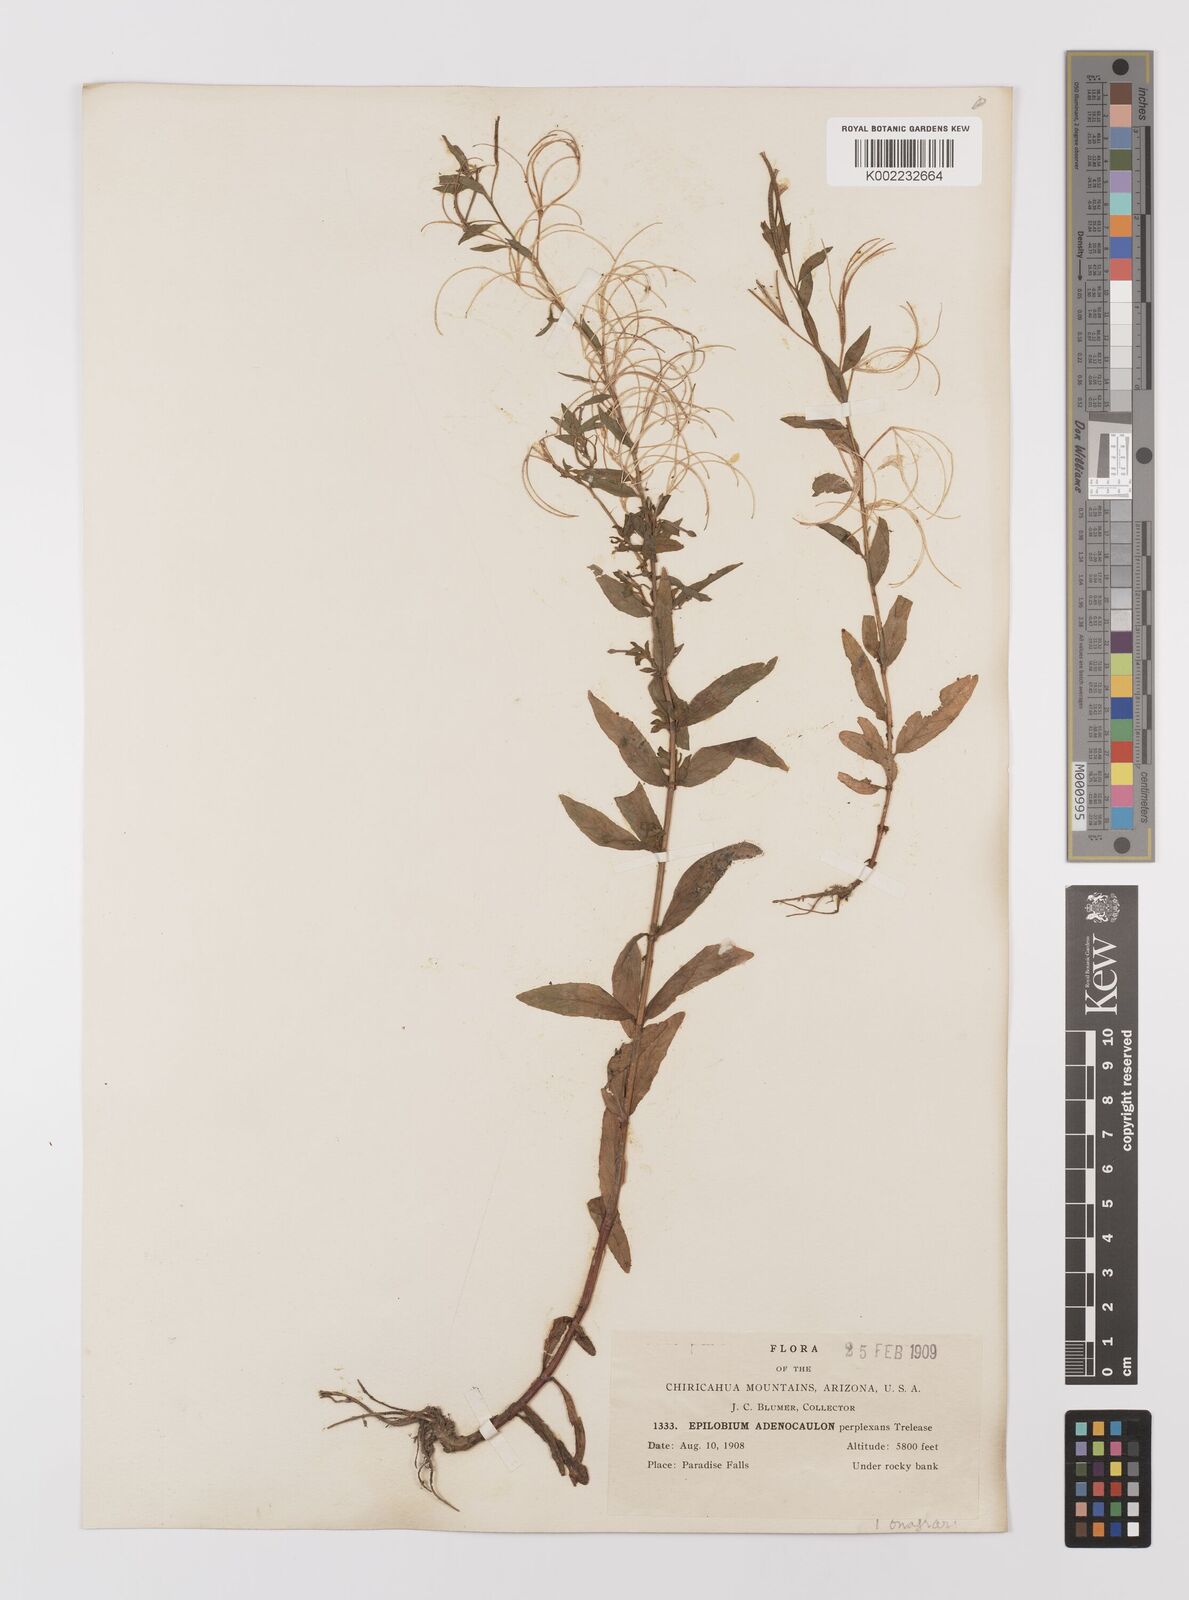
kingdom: Plantae
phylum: Tracheophyta
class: Magnoliopsida
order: Myrtales
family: Onagraceae
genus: Epilobium
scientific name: Epilobium ciliatum
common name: American willowherb
